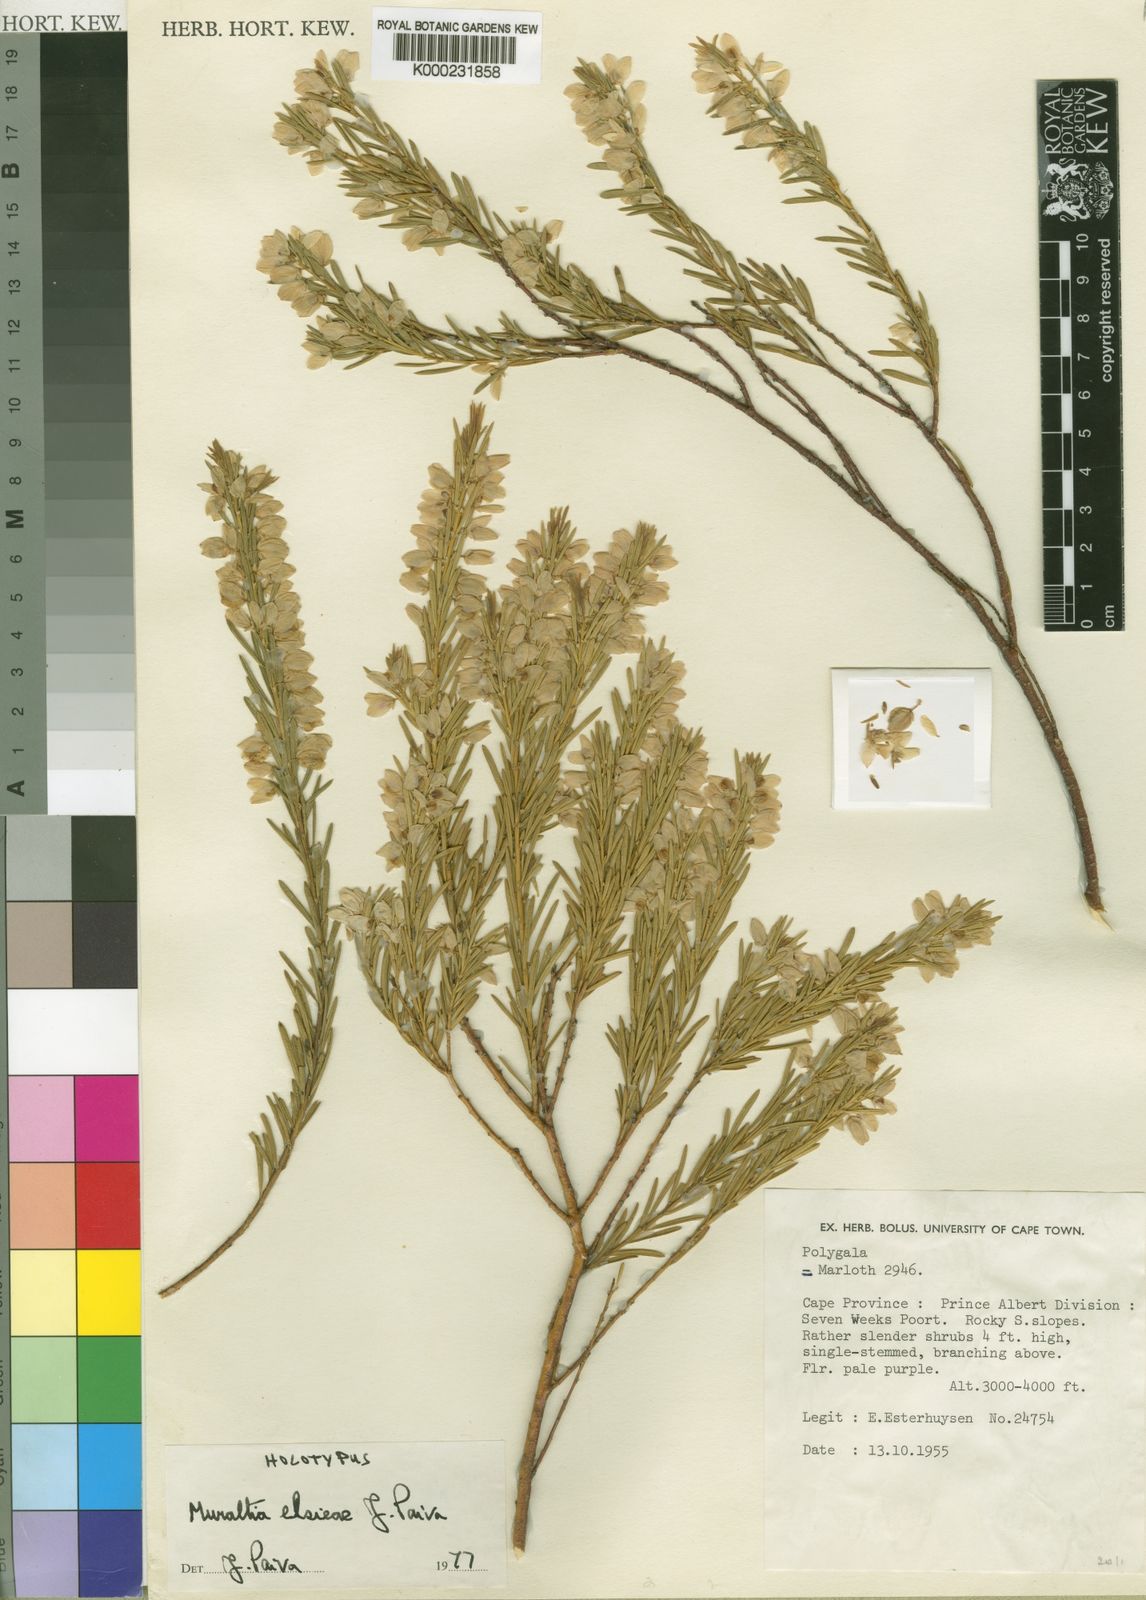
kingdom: Plantae
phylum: Tracheophyta
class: Magnoliopsida
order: Fabales
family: Polygalaceae
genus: Muraltia
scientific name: Muraltia elsieae
